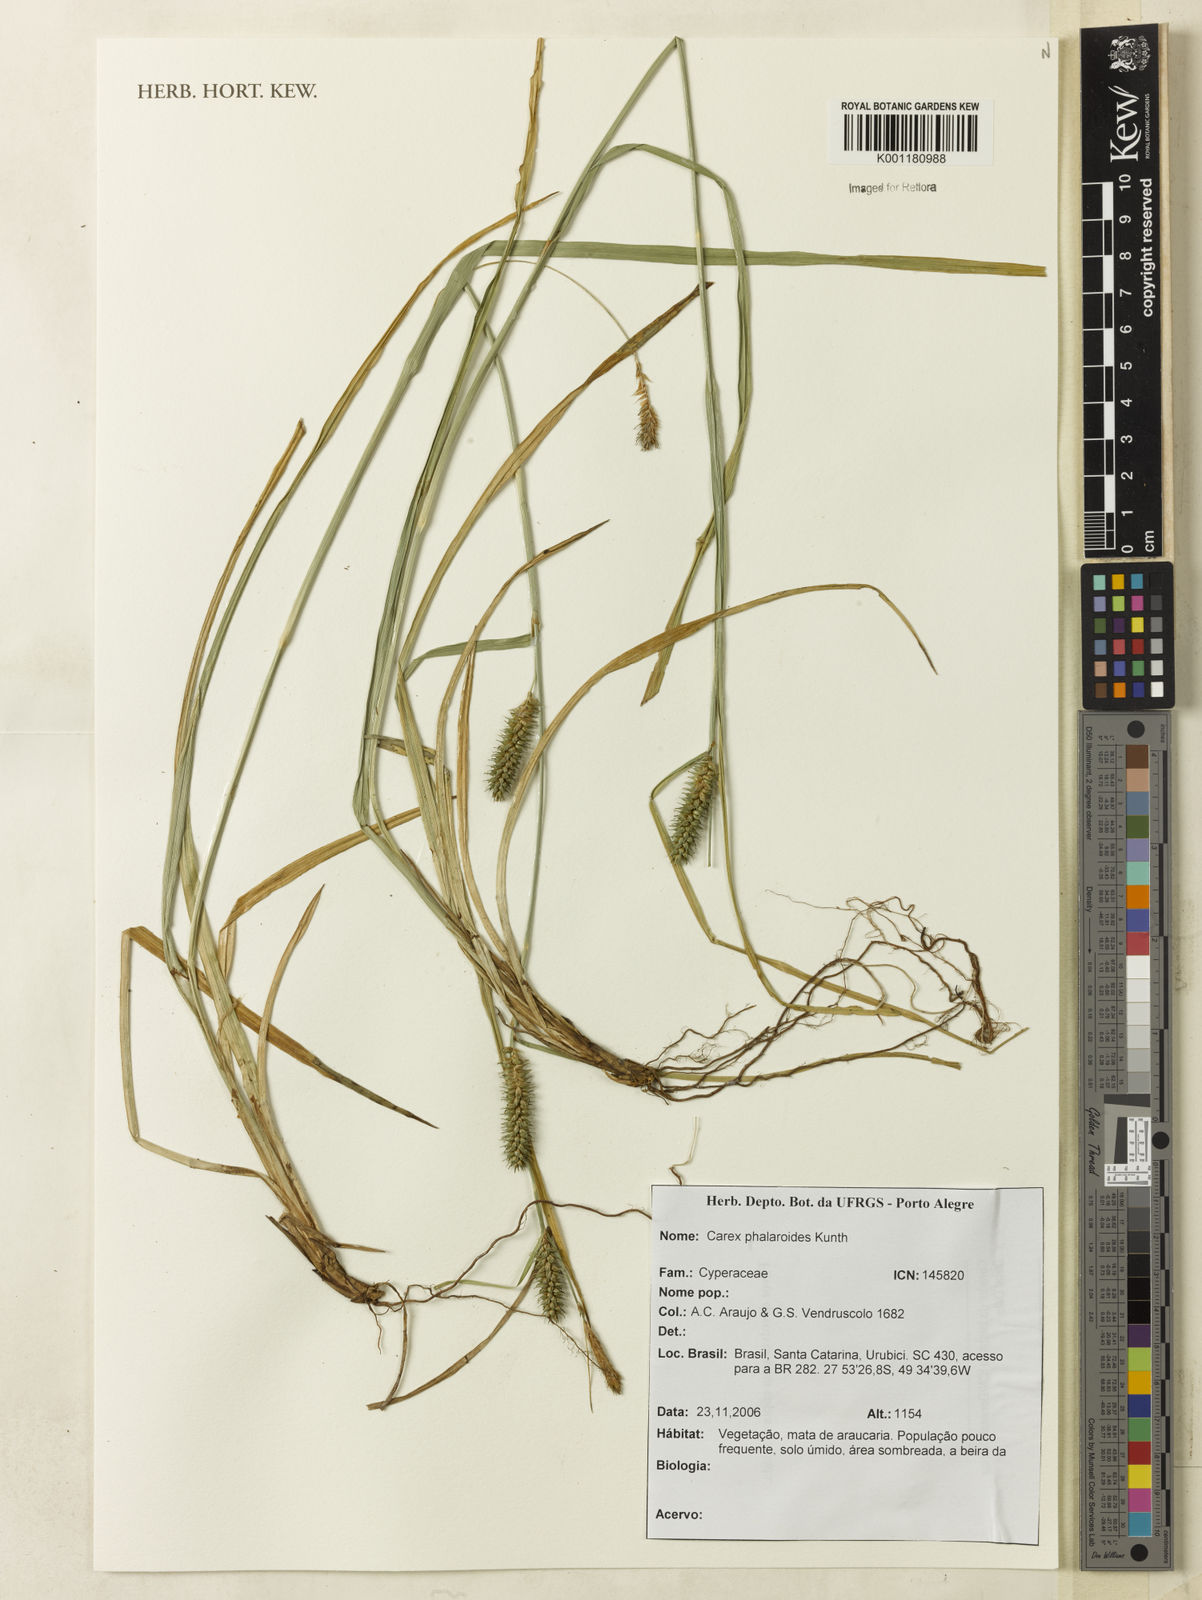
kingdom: Plantae
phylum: Tracheophyta
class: Liliopsida
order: Poales
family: Cyperaceae
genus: Carex
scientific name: Carex catharinensis
